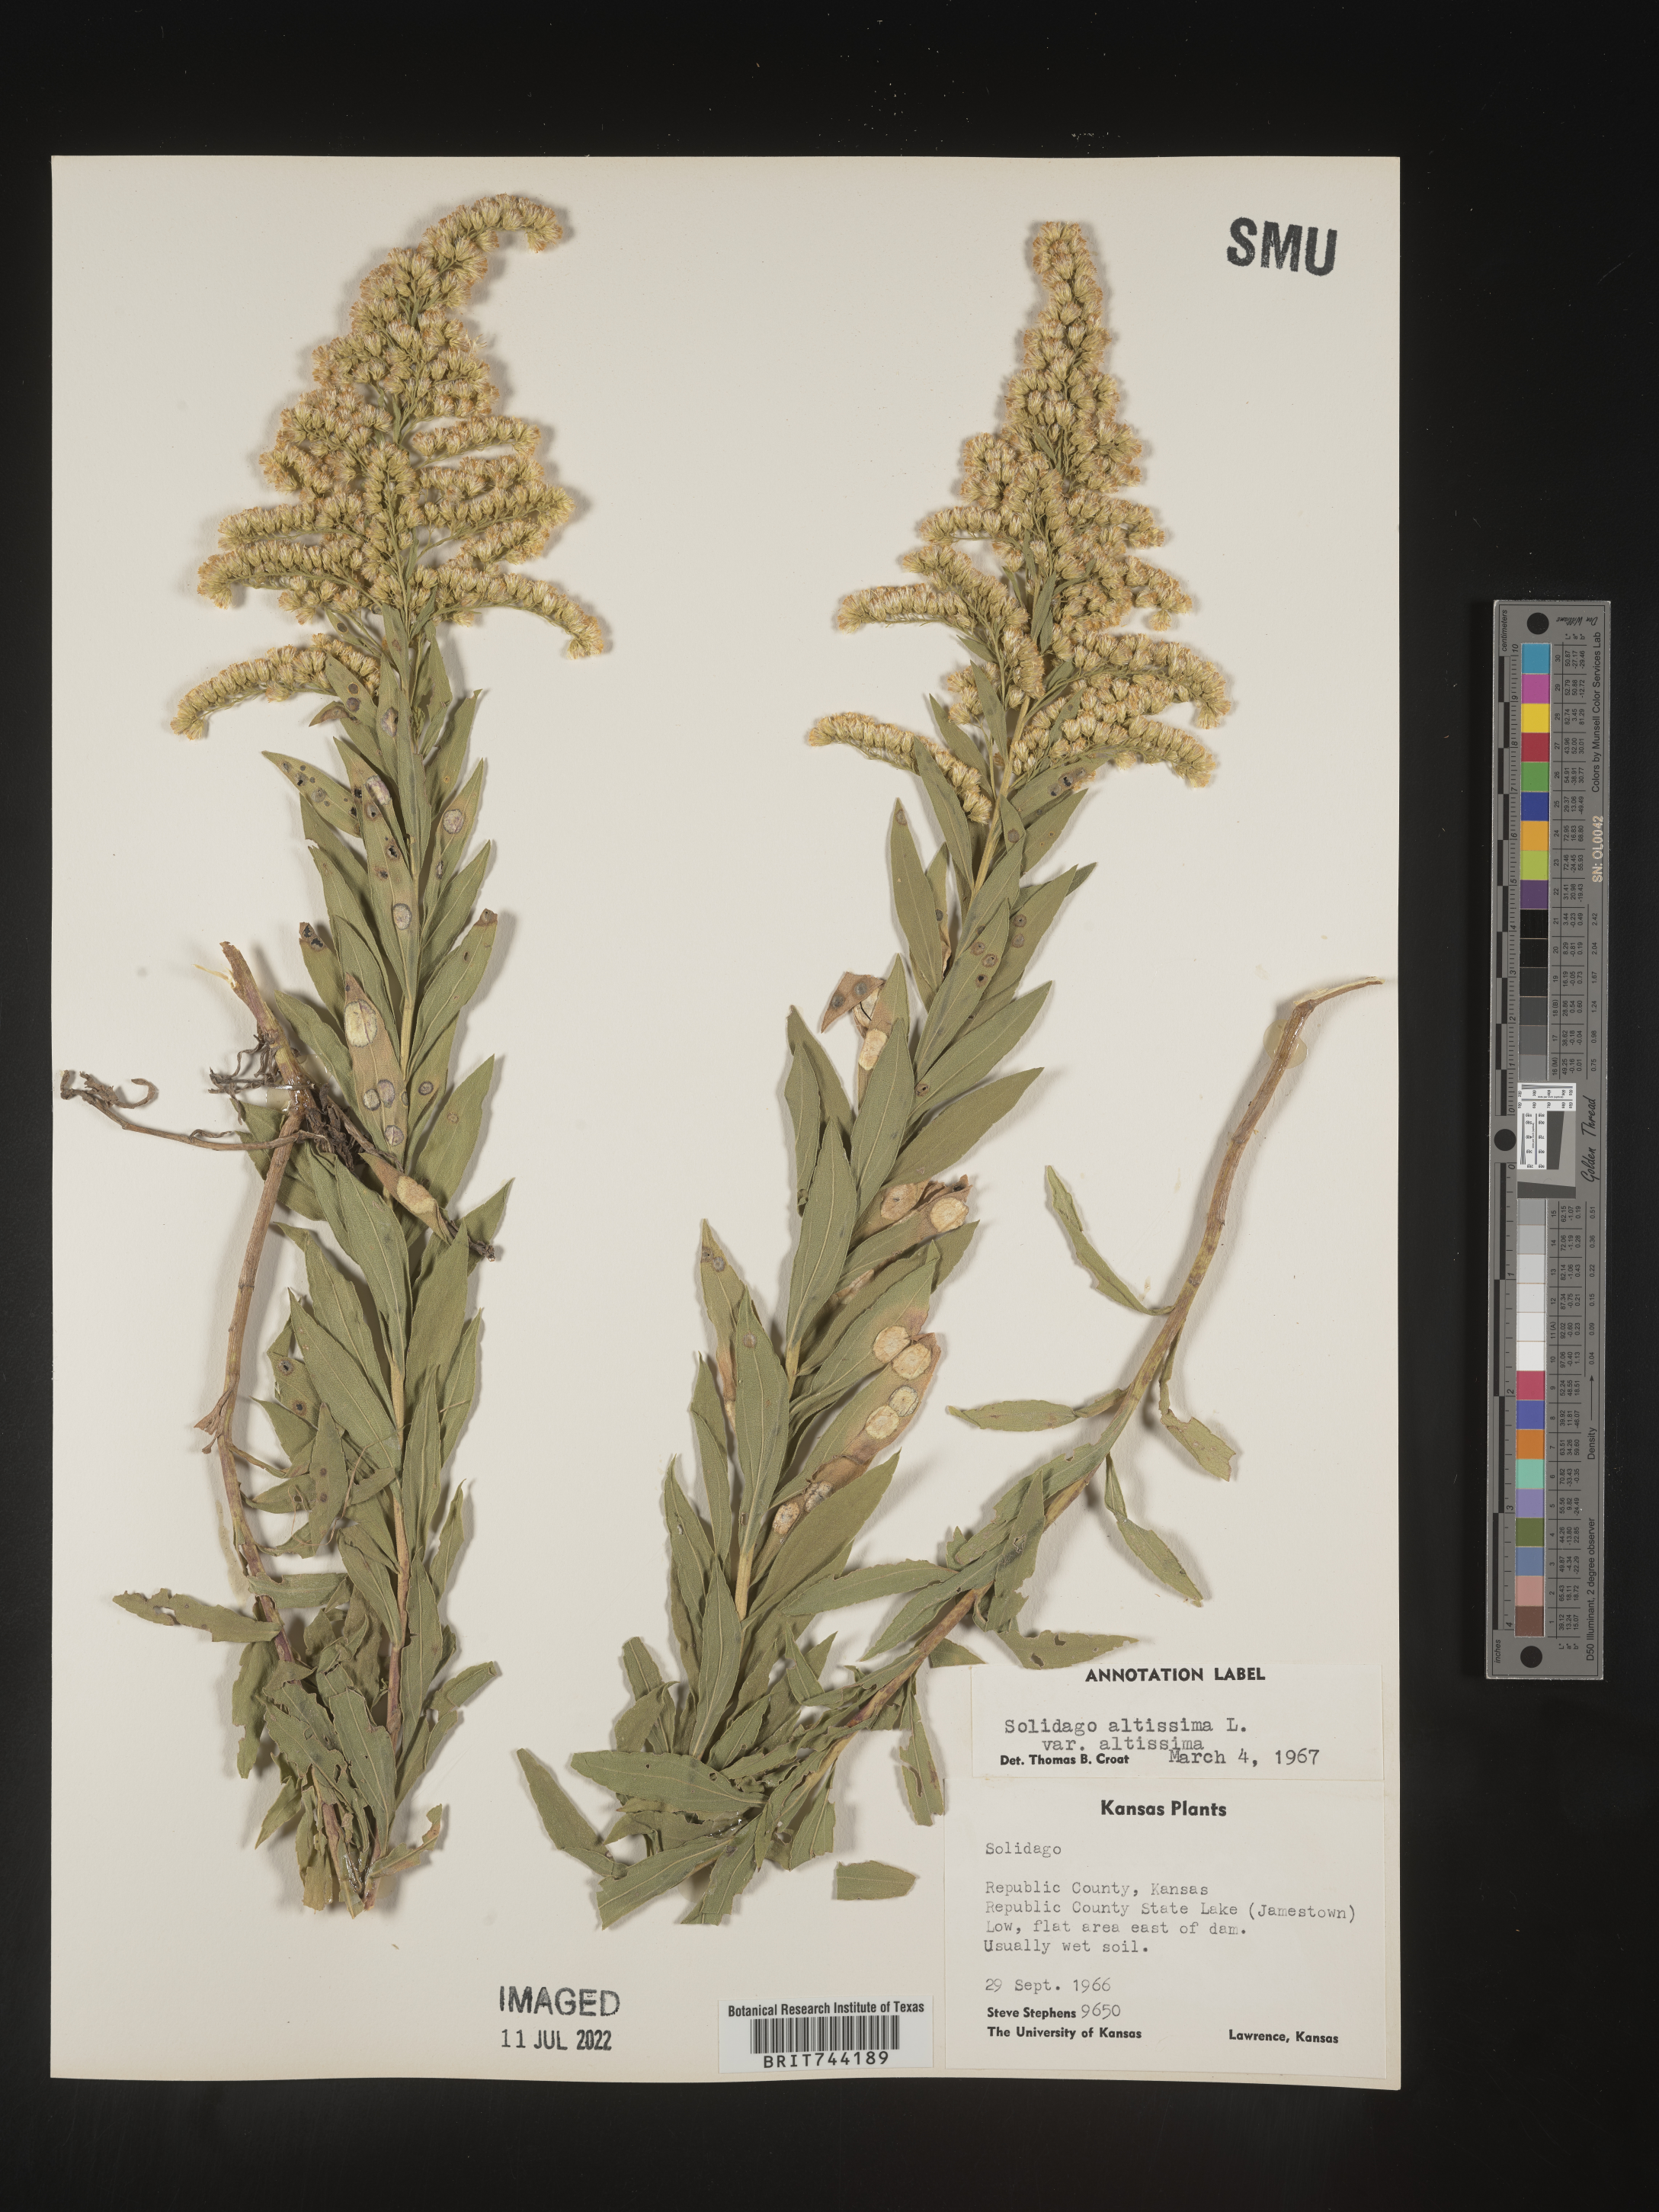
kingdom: Plantae
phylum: Tracheophyta
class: Magnoliopsida
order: Asterales
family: Asteraceae
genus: Solidago
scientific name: Solidago altissima
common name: Late goldenrod
